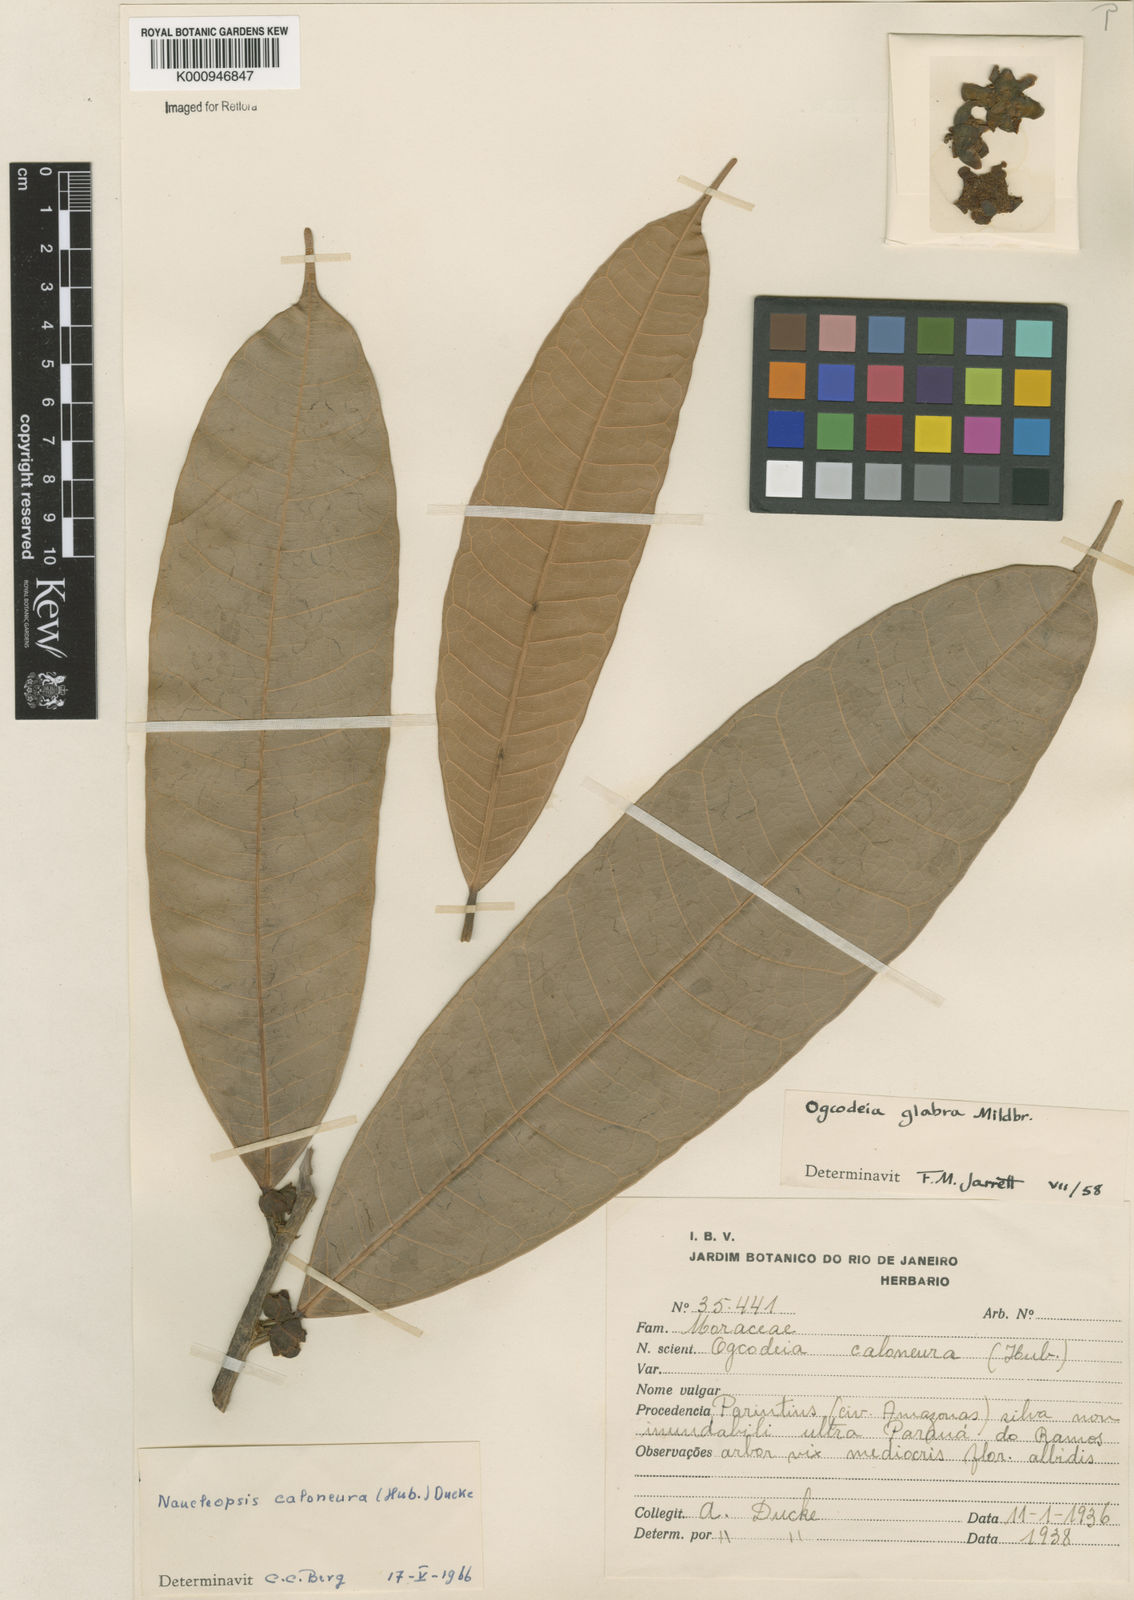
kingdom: Plantae
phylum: Tracheophyta
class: Magnoliopsida
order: Rosales
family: Moraceae
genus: Naucleopsis
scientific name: Naucleopsis caloneura
